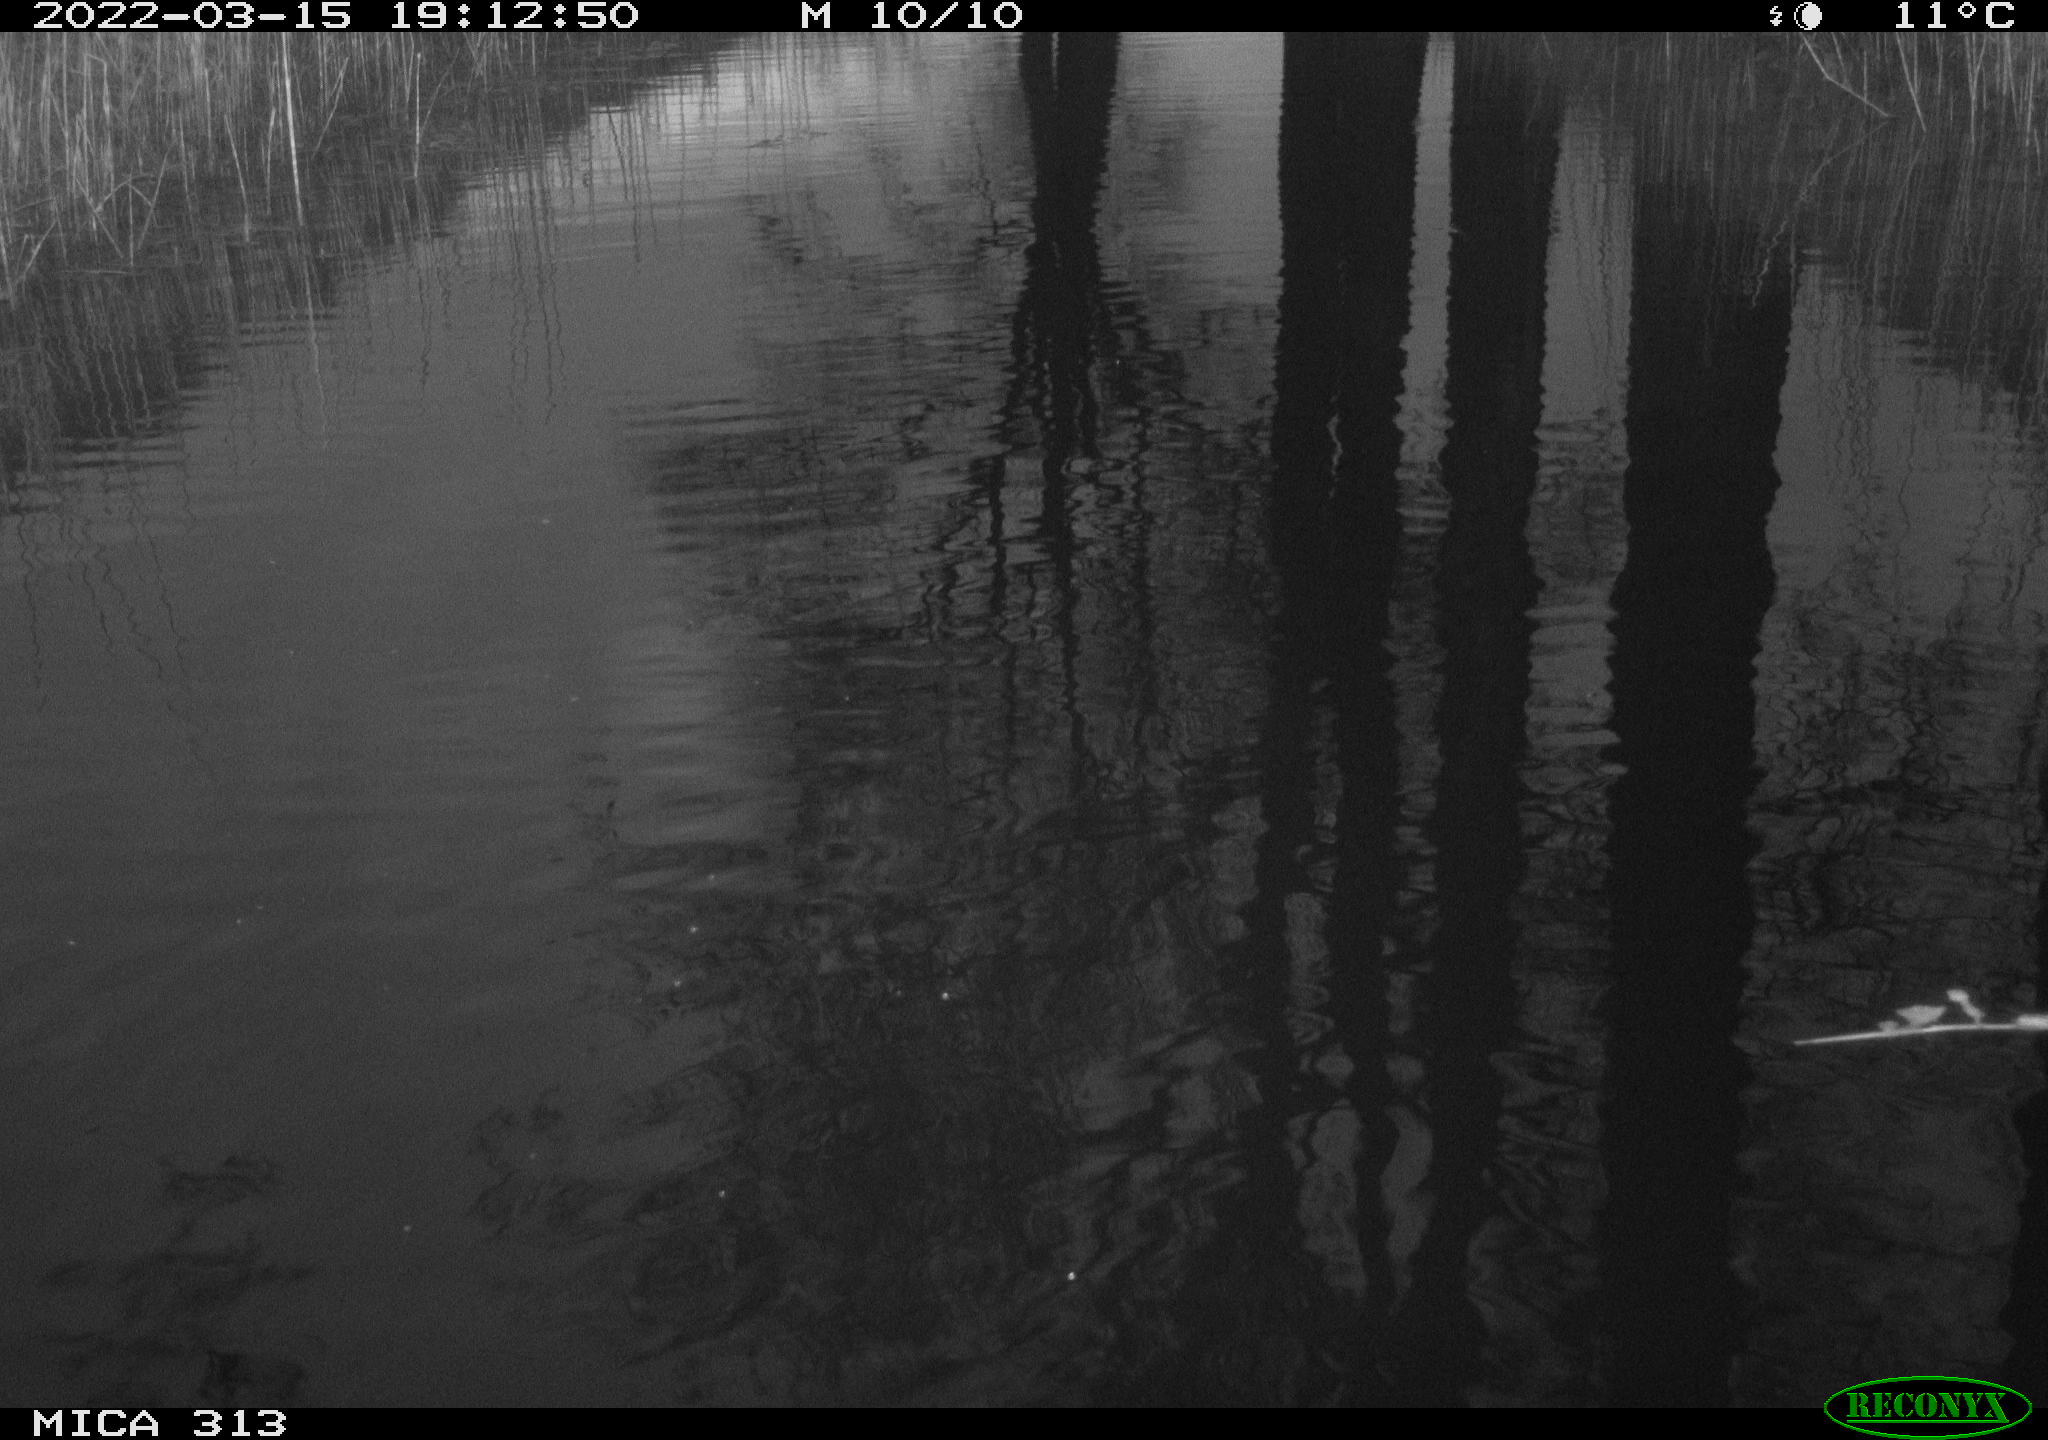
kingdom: Animalia
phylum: Chordata
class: Aves
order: Gruiformes
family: Rallidae
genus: Gallinula
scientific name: Gallinula chloropus
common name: Common moorhen
